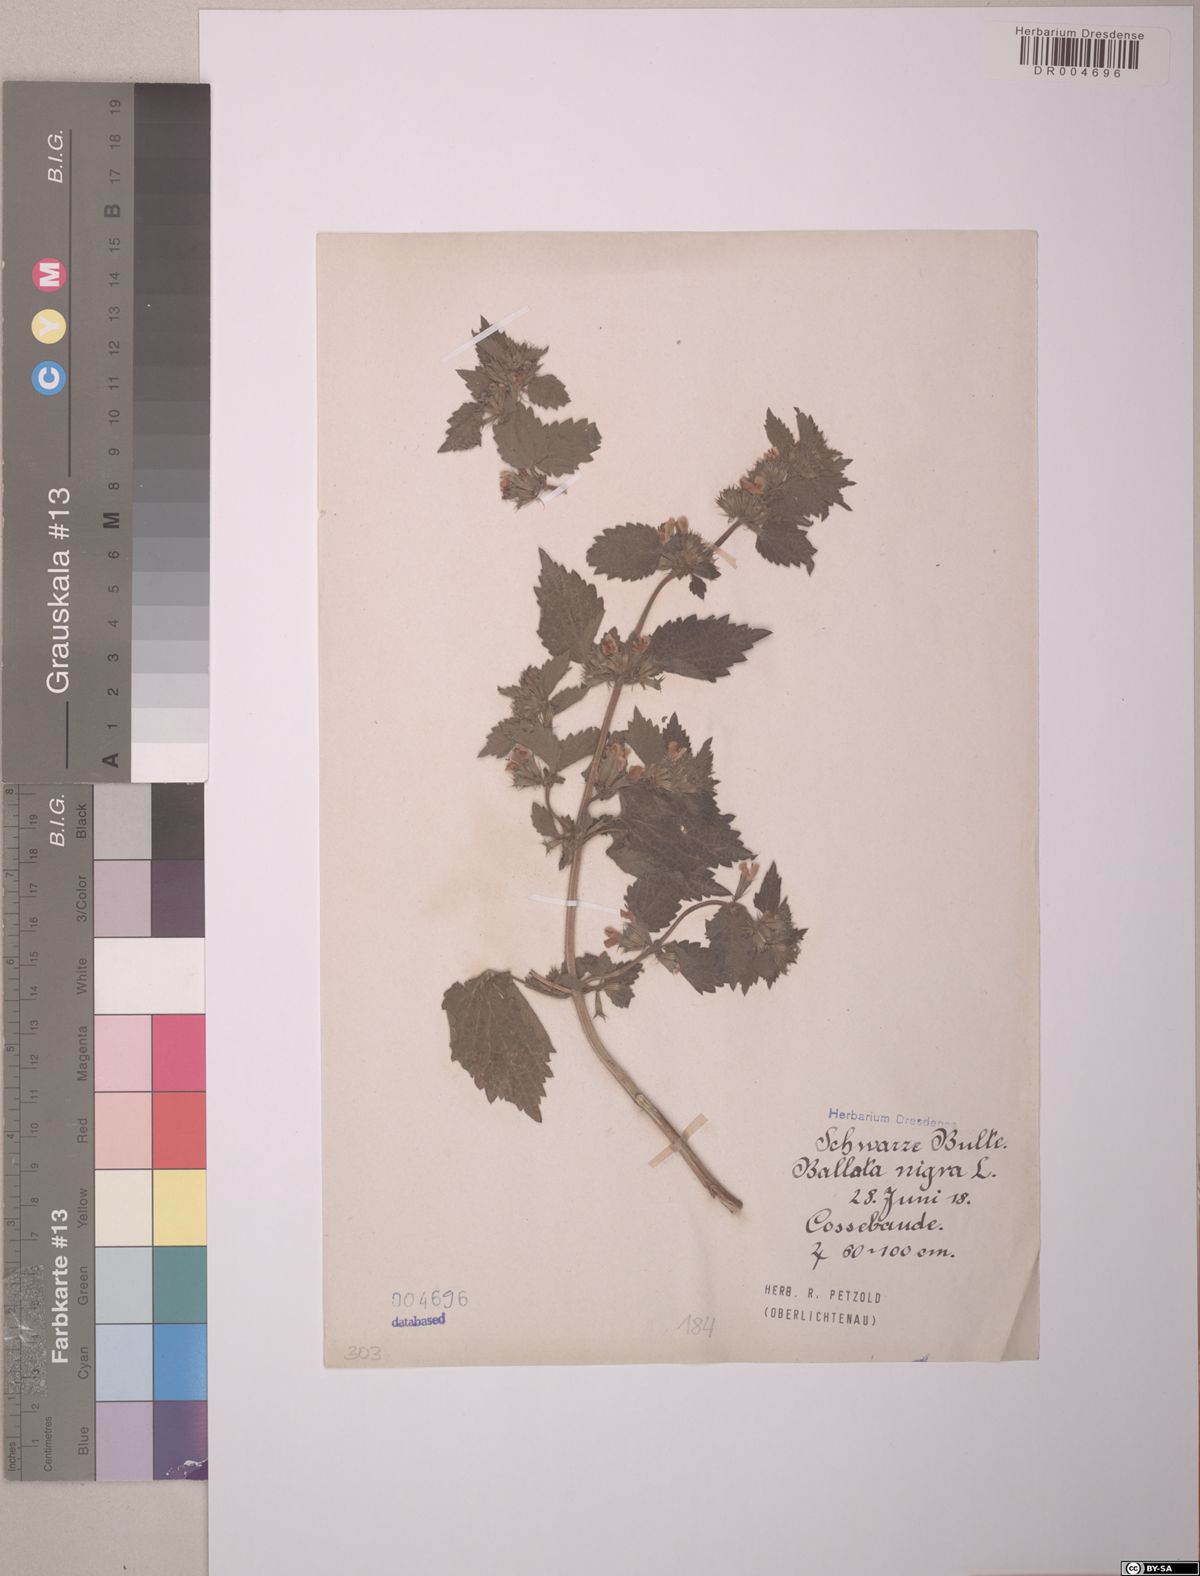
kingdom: Plantae
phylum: Tracheophyta
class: Magnoliopsida
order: Lamiales
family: Lamiaceae
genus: Ballota
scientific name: Ballota nigra
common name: Black horehound
